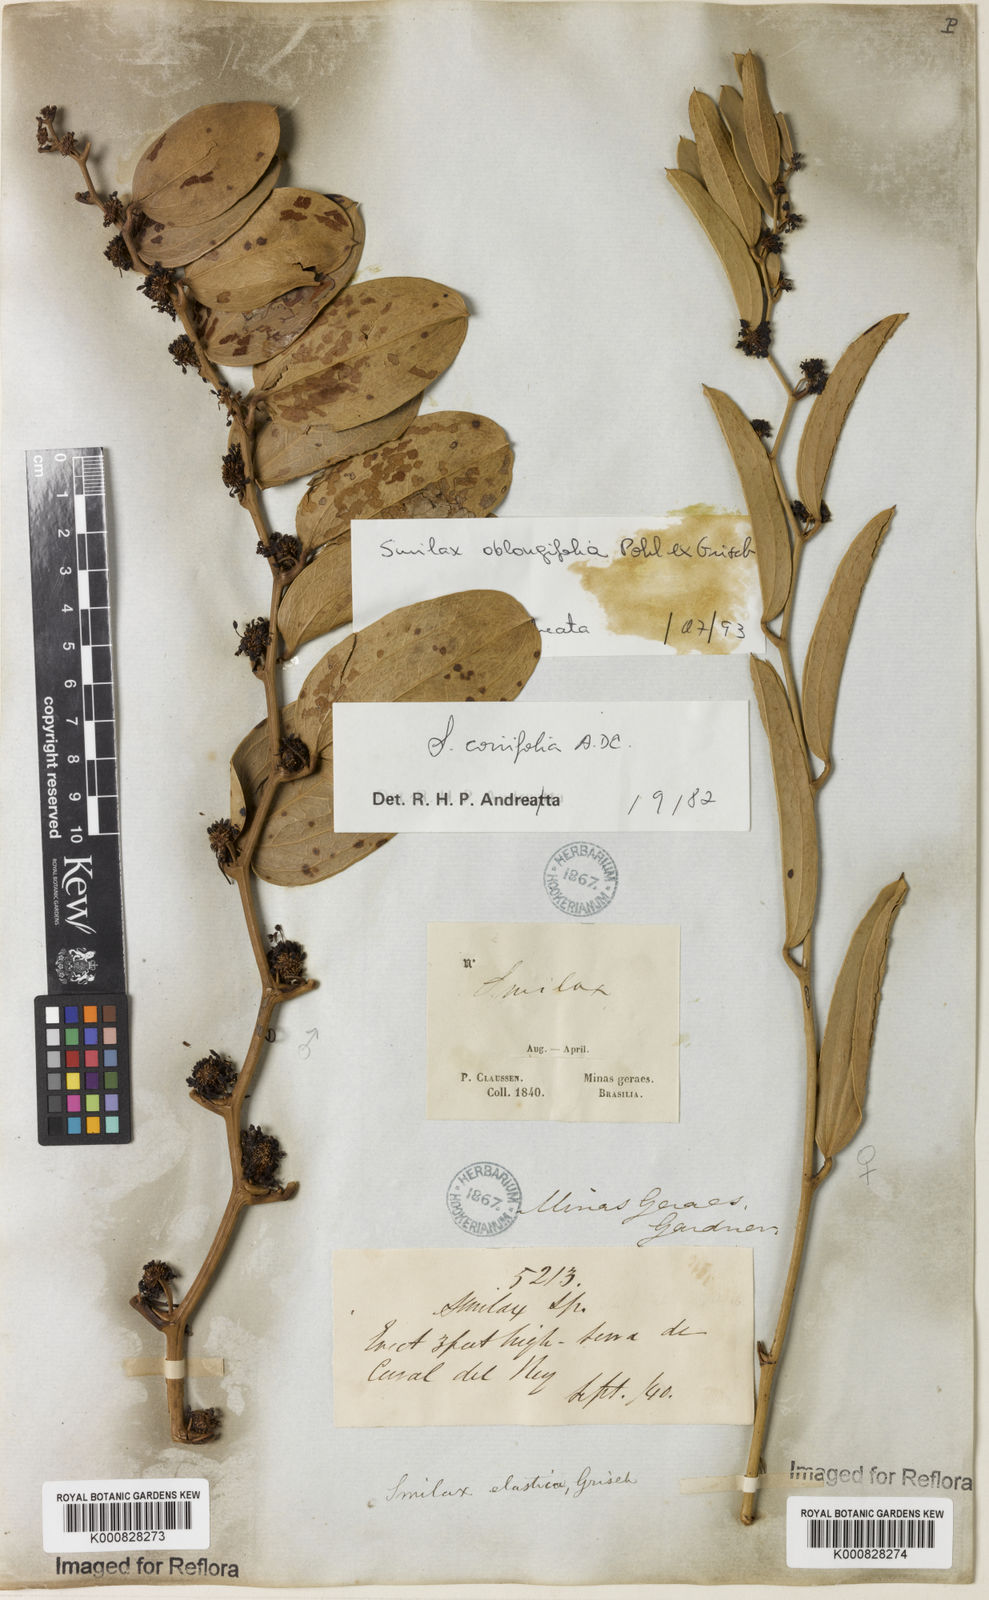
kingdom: Plantae
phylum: Tracheophyta
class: Liliopsida
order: Liliales
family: Smilacaceae
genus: Smilax
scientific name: Smilax oblongifolia
